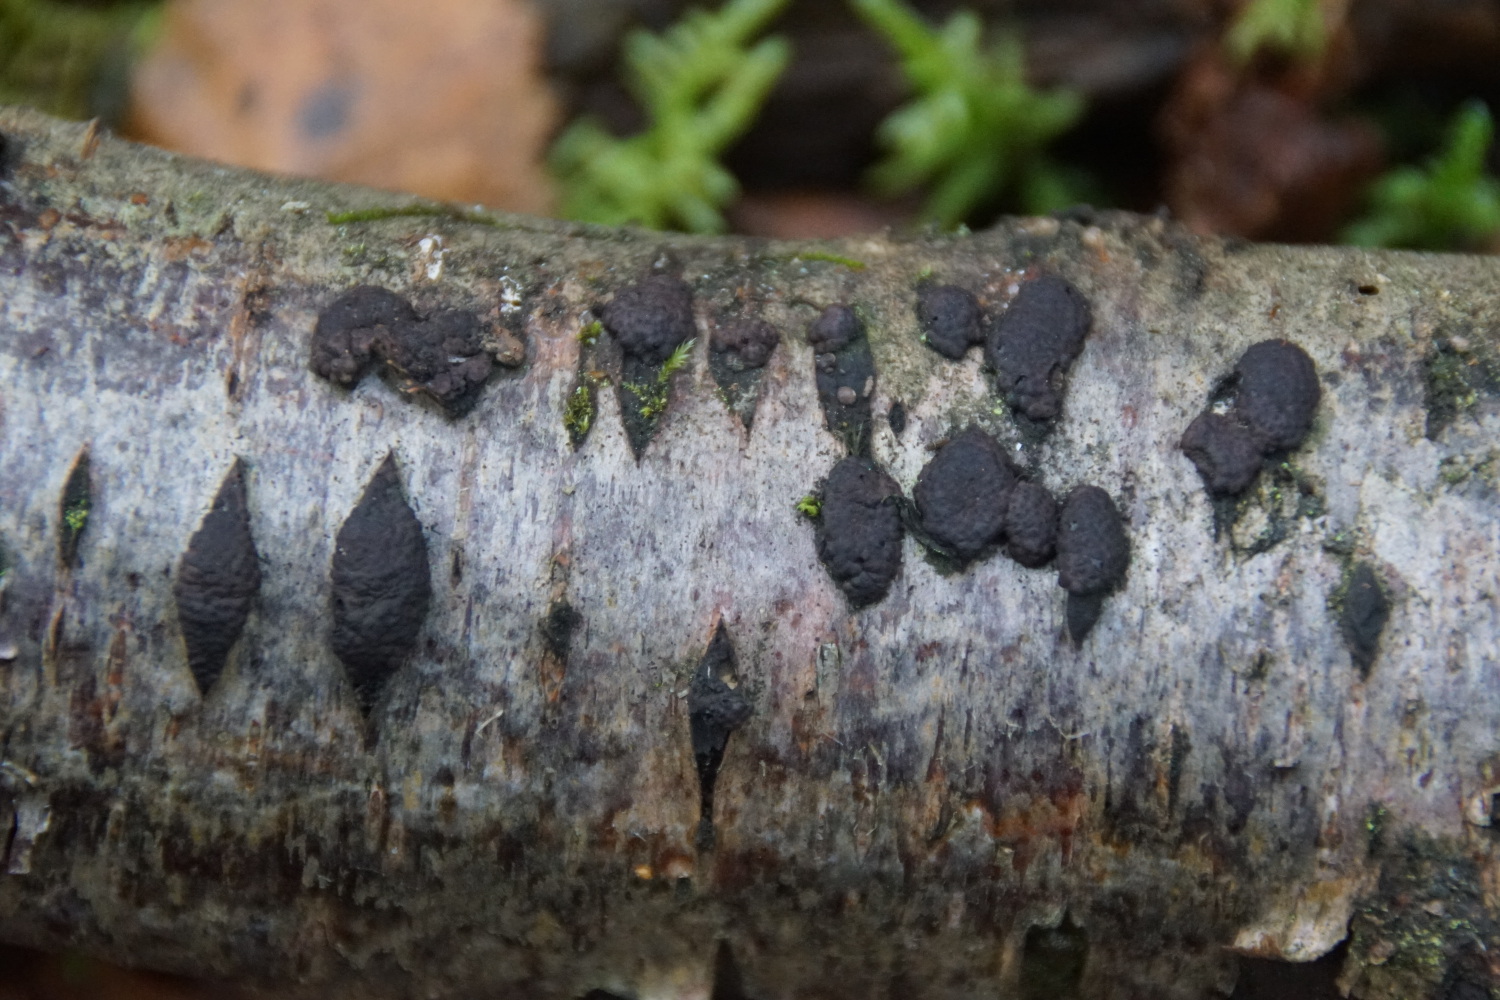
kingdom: Fungi
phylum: Ascomycota
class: Sordariomycetes
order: Xylariales
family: Hypoxylaceae
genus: Jackrogersella
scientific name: Jackrogersella multiformis
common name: foranderlig kulbær
